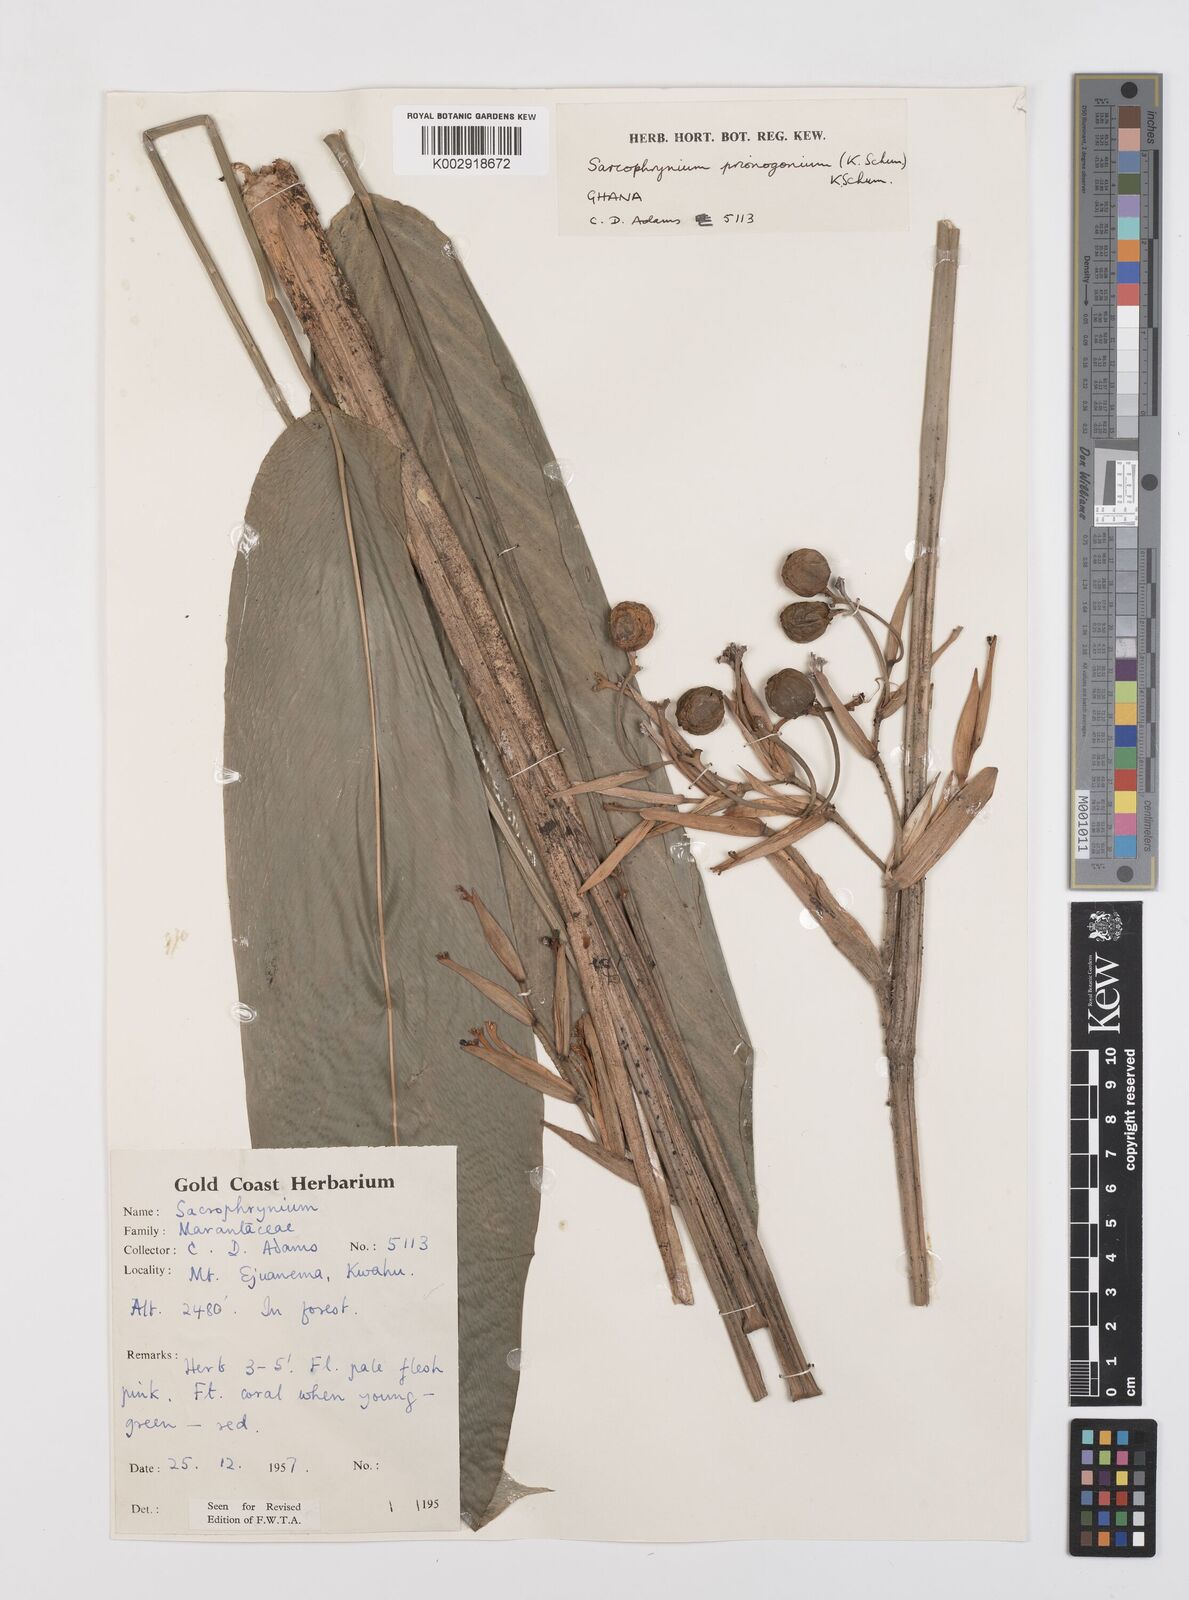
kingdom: Plantae
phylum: Tracheophyta
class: Liliopsida
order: Zingiberales
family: Marantaceae
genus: Sarcophrynium
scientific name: Sarcophrynium prionogonium
